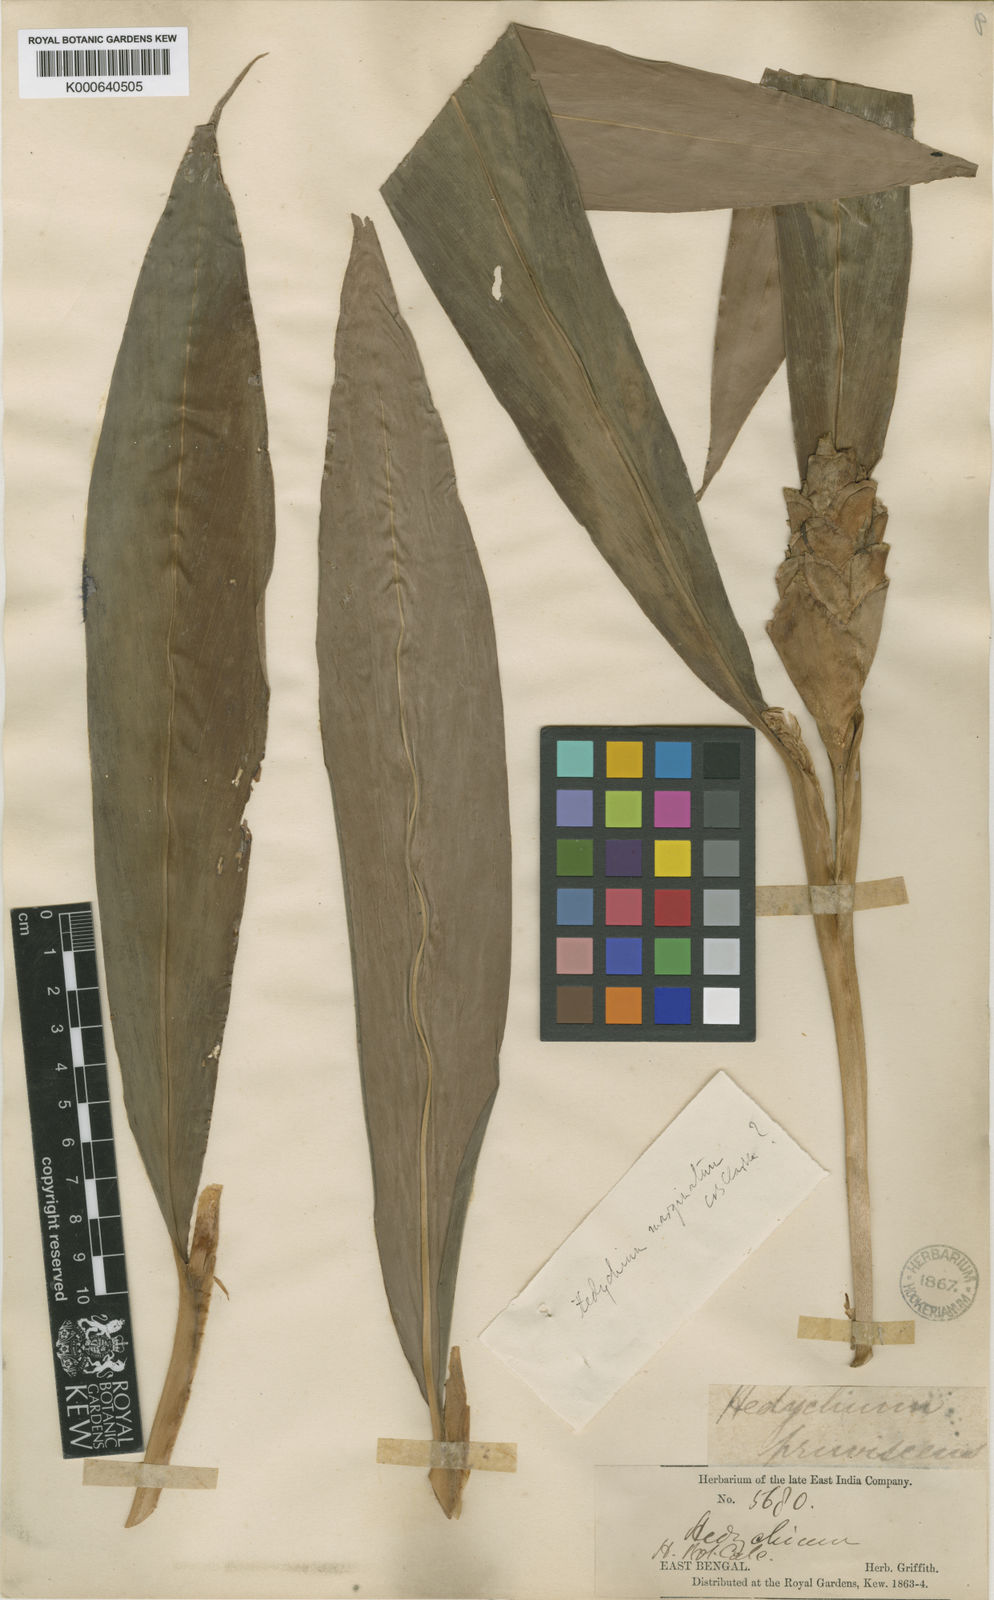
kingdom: Plantae
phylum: Tracheophyta
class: Liliopsida
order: Zingiberales
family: Zingiberaceae
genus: Hedychium
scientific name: Hedychium marginatum
